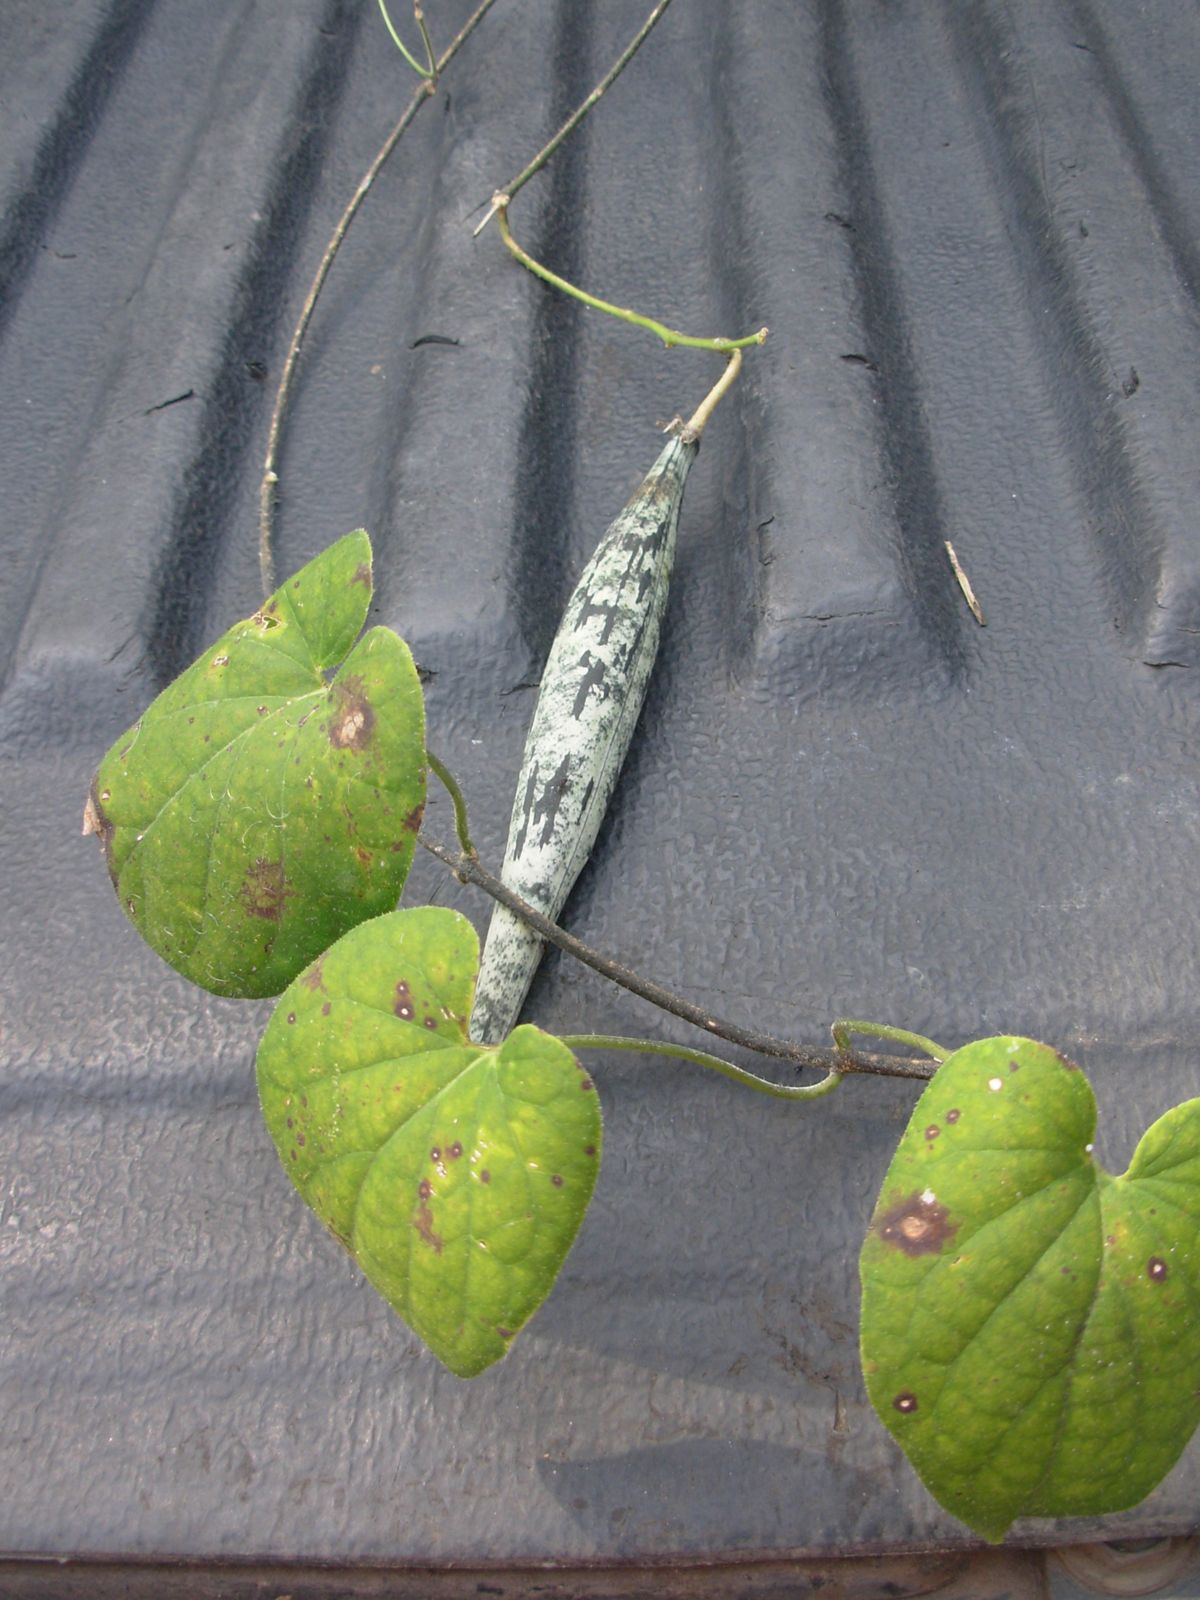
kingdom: Plantae
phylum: Tracheophyta
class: Magnoliopsida
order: Gentianales
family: Apocynaceae
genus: Polystemma
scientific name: Polystemma guatemalense
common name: Arborescente rattan
